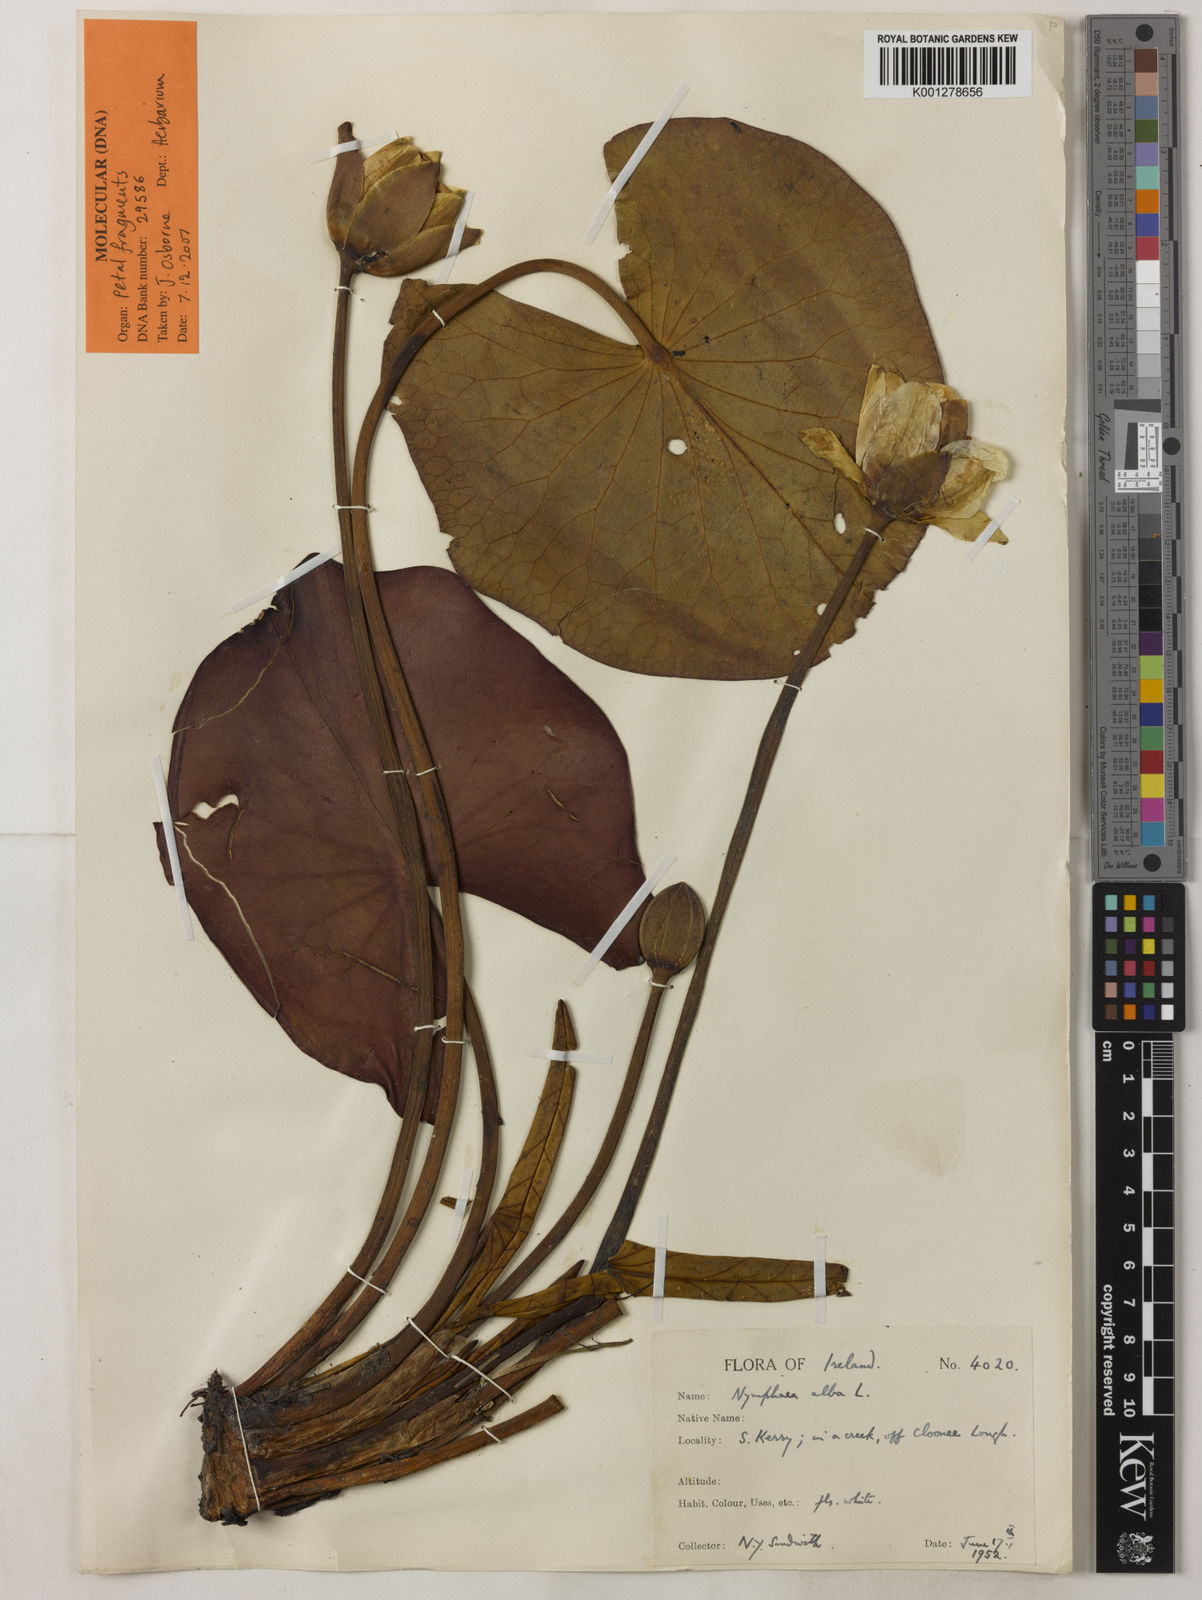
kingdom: Plantae
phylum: Tracheophyta
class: Magnoliopsida
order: Nymphaeales
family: Nymphaeaceae
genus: Nymphaea
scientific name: Nymphaea alba
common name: White water-lily
